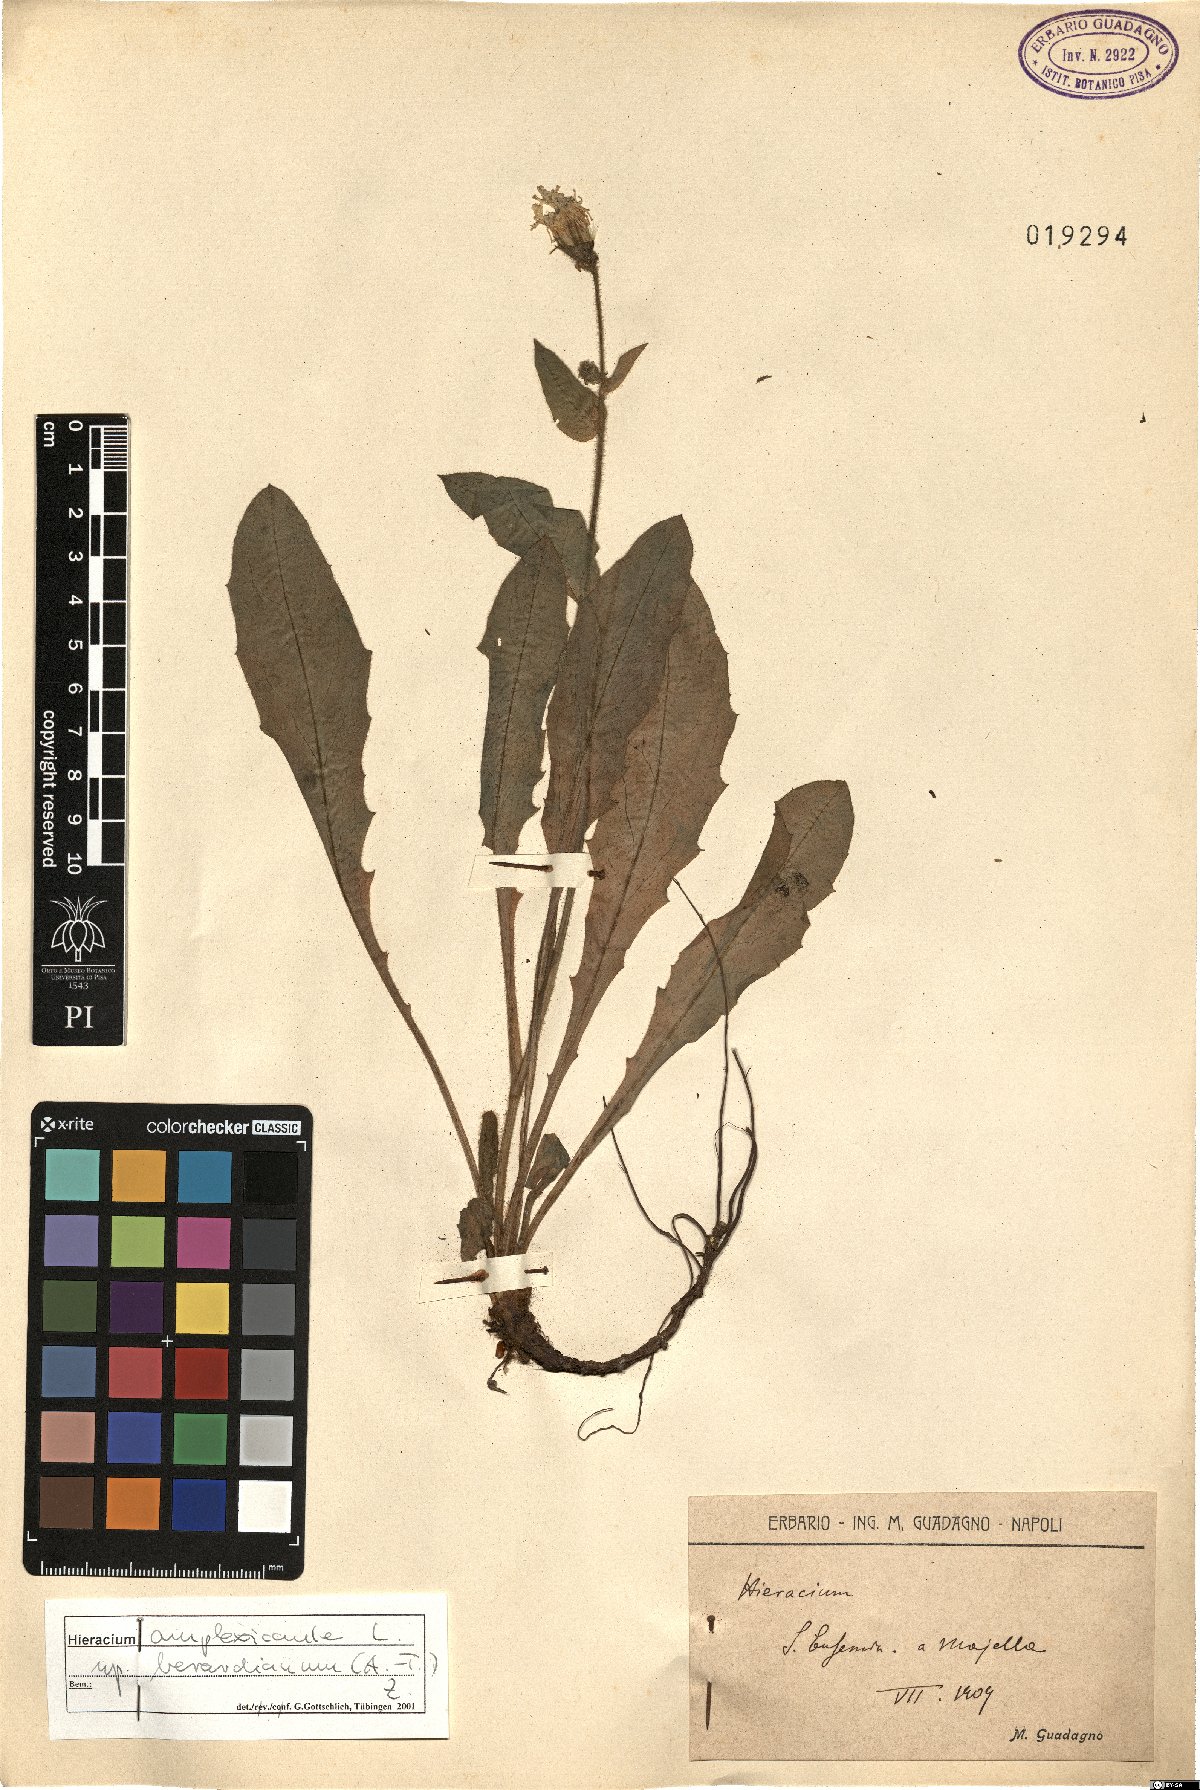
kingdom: Plantae
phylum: Tracheophyta
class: Magnoliopsida
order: Asterales
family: Asteraceae
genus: Hieracium
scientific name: Hieracium amplexicaule
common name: Sticky hawkweed
